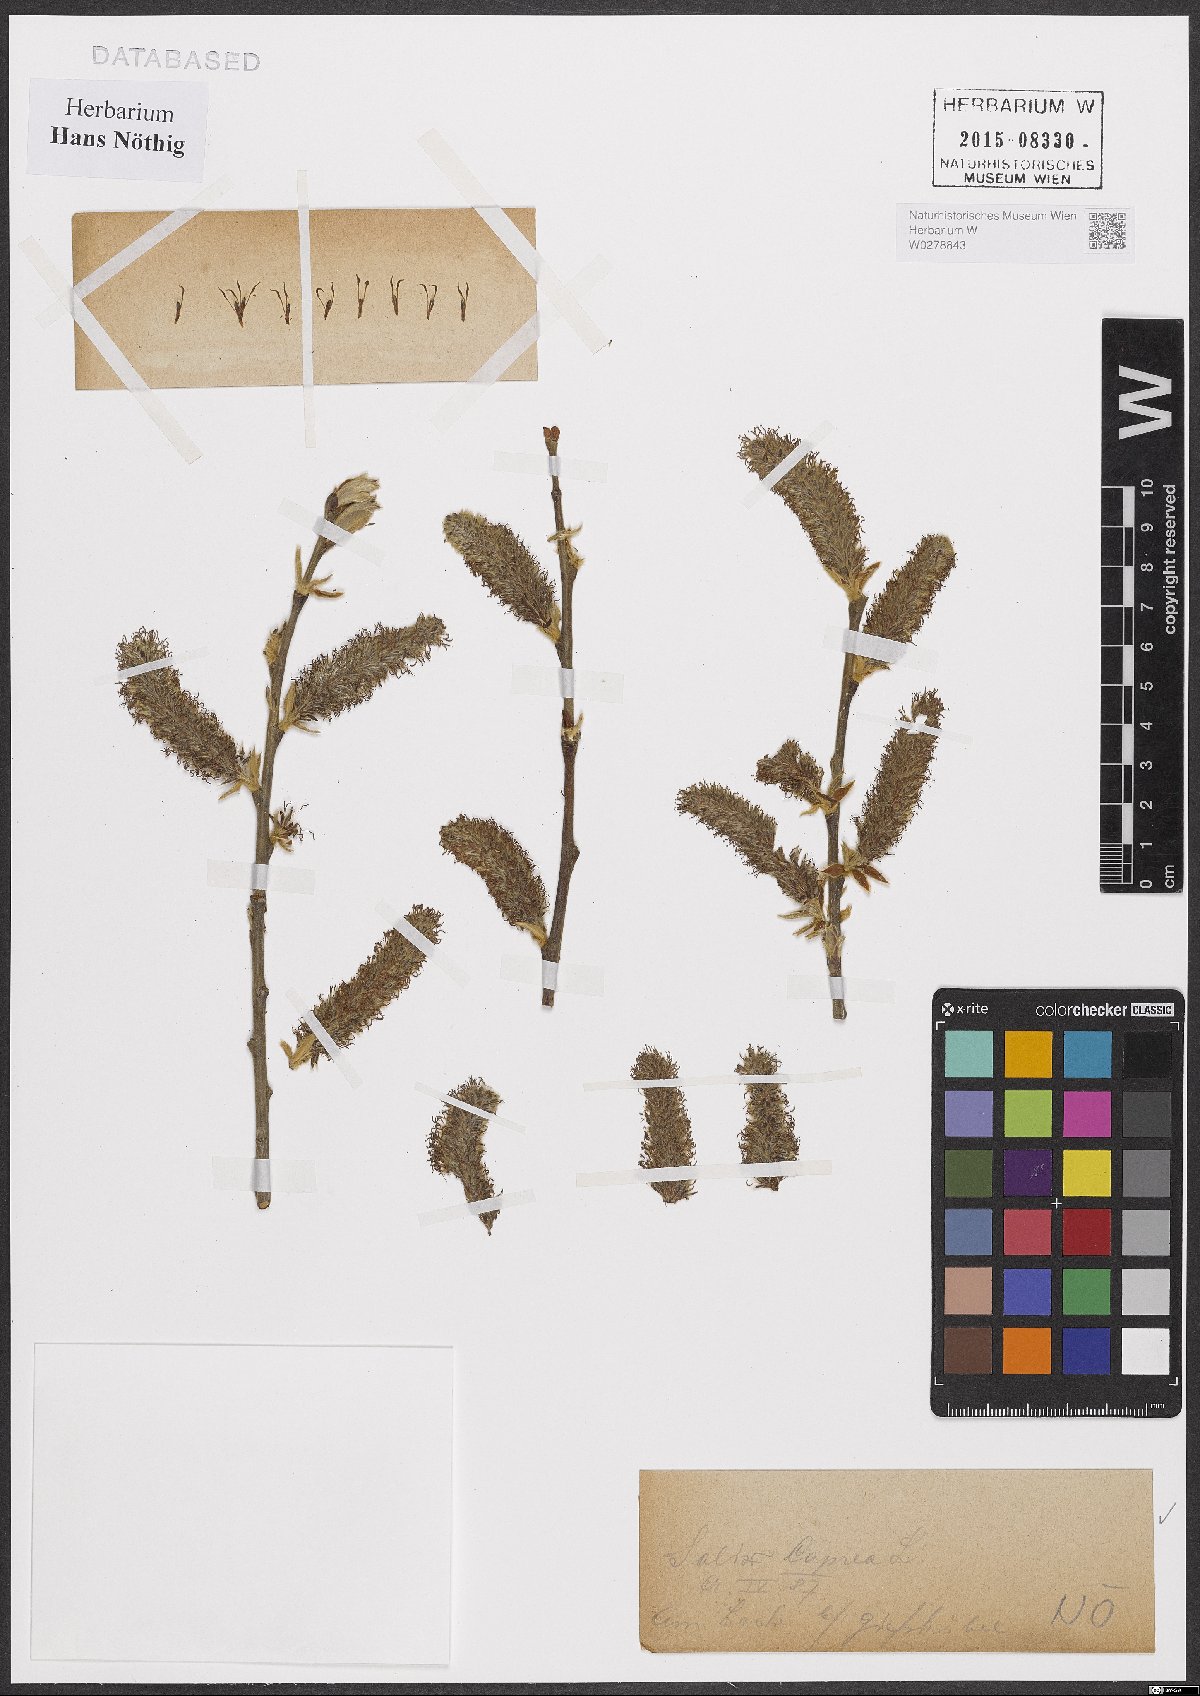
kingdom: Plantae
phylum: Tracheophyta
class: Magnoliopsida
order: Malpighiales
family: Salicaceae
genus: Salix
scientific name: Salix caprea
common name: Goat willow
